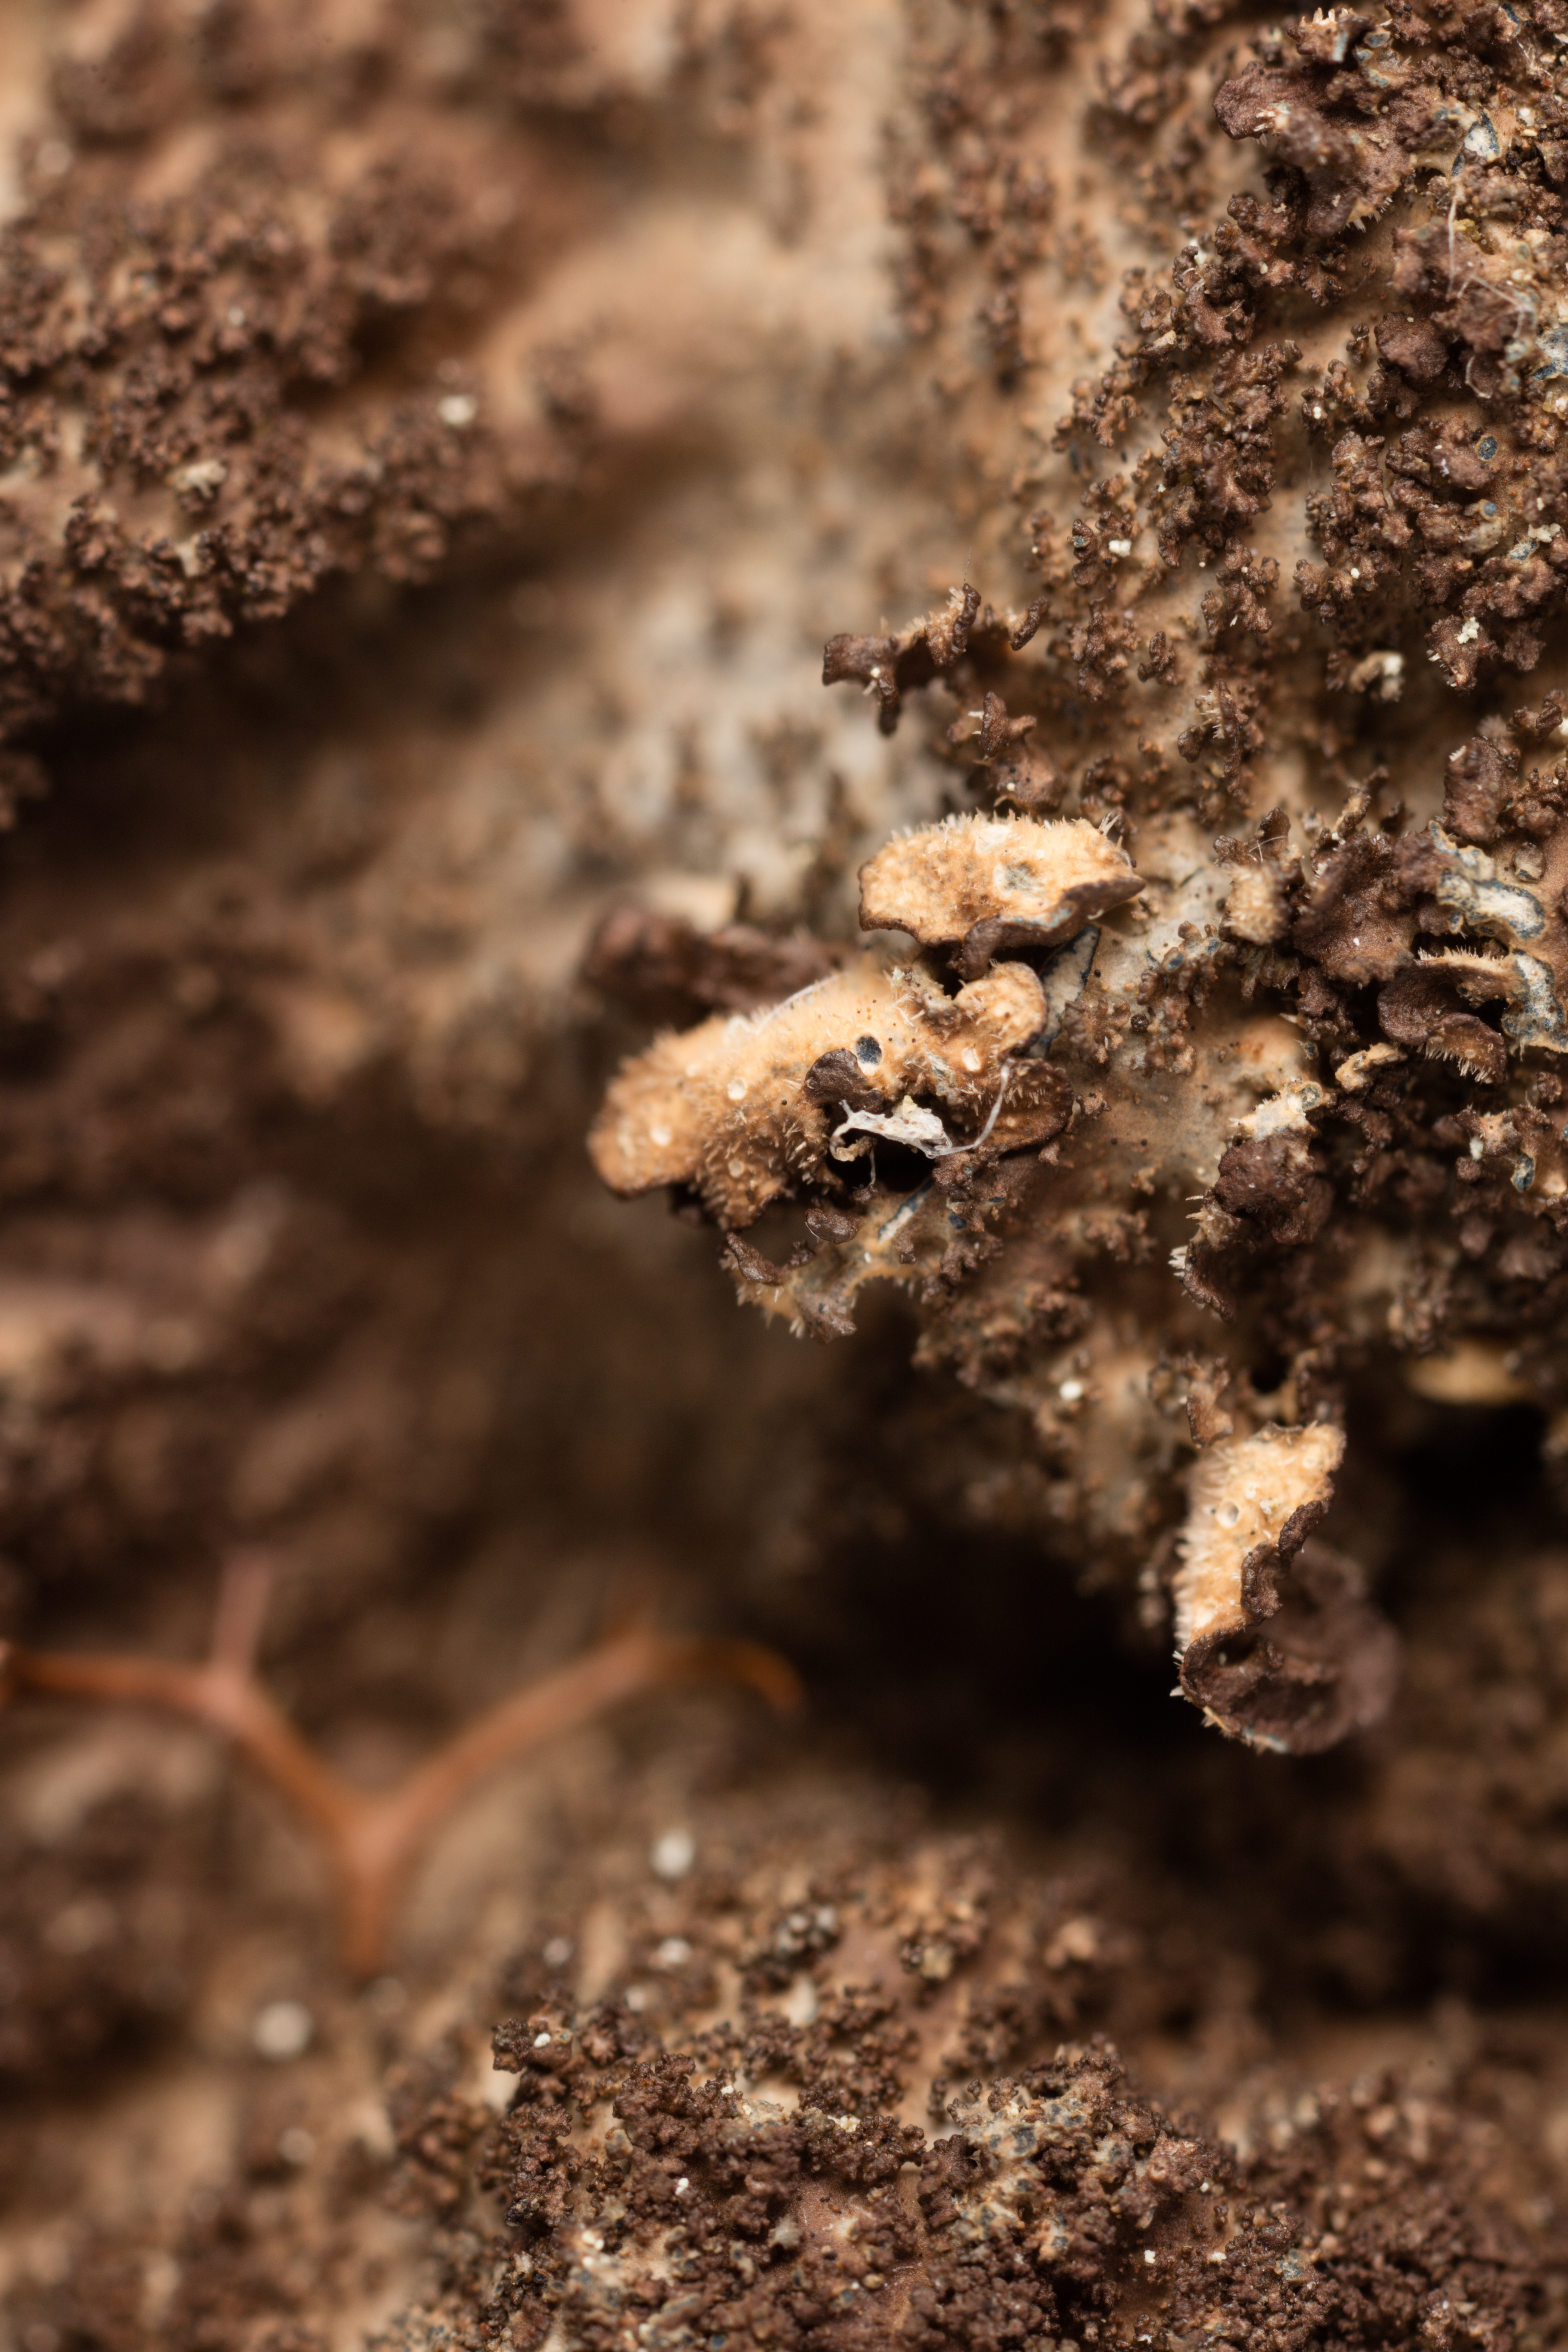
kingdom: Fungi
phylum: Ascomycota
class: Lecanoromycetes
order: Peltigerales
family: Lobariaceae
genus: Sticta
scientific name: Sticta fuliginosa
